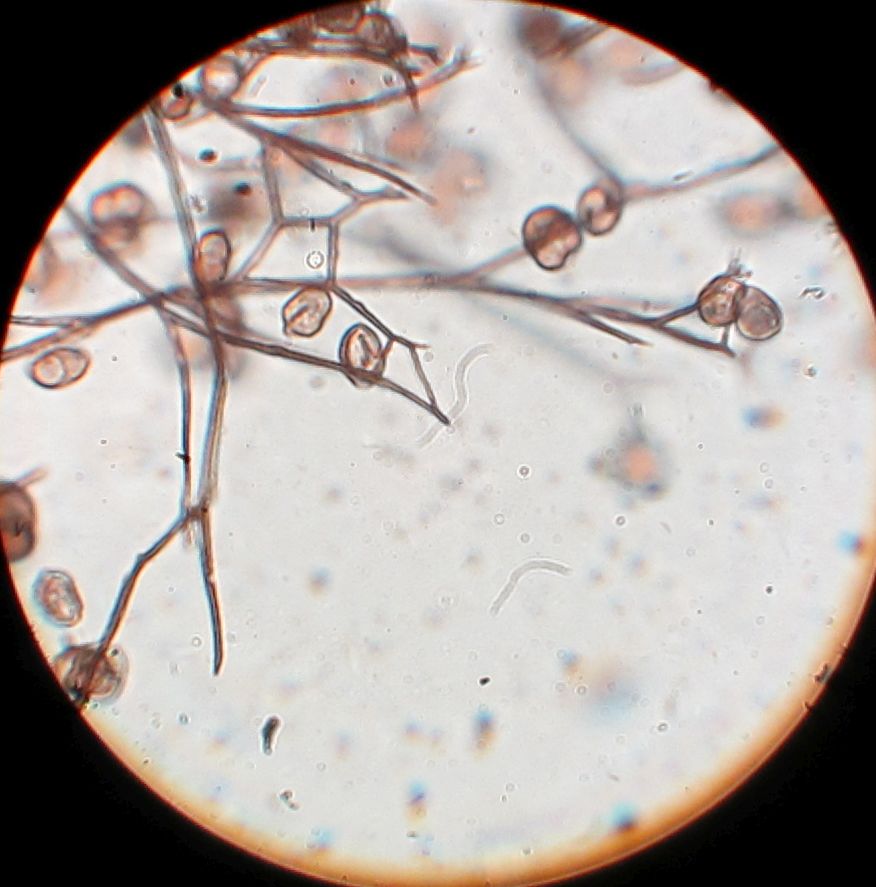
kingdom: Protozoa
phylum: Mycetozoa
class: Myxomycetes
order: Stemonitidales
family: Stemonitidaceae
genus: Lamproderma
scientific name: Lamproderma scintillans
